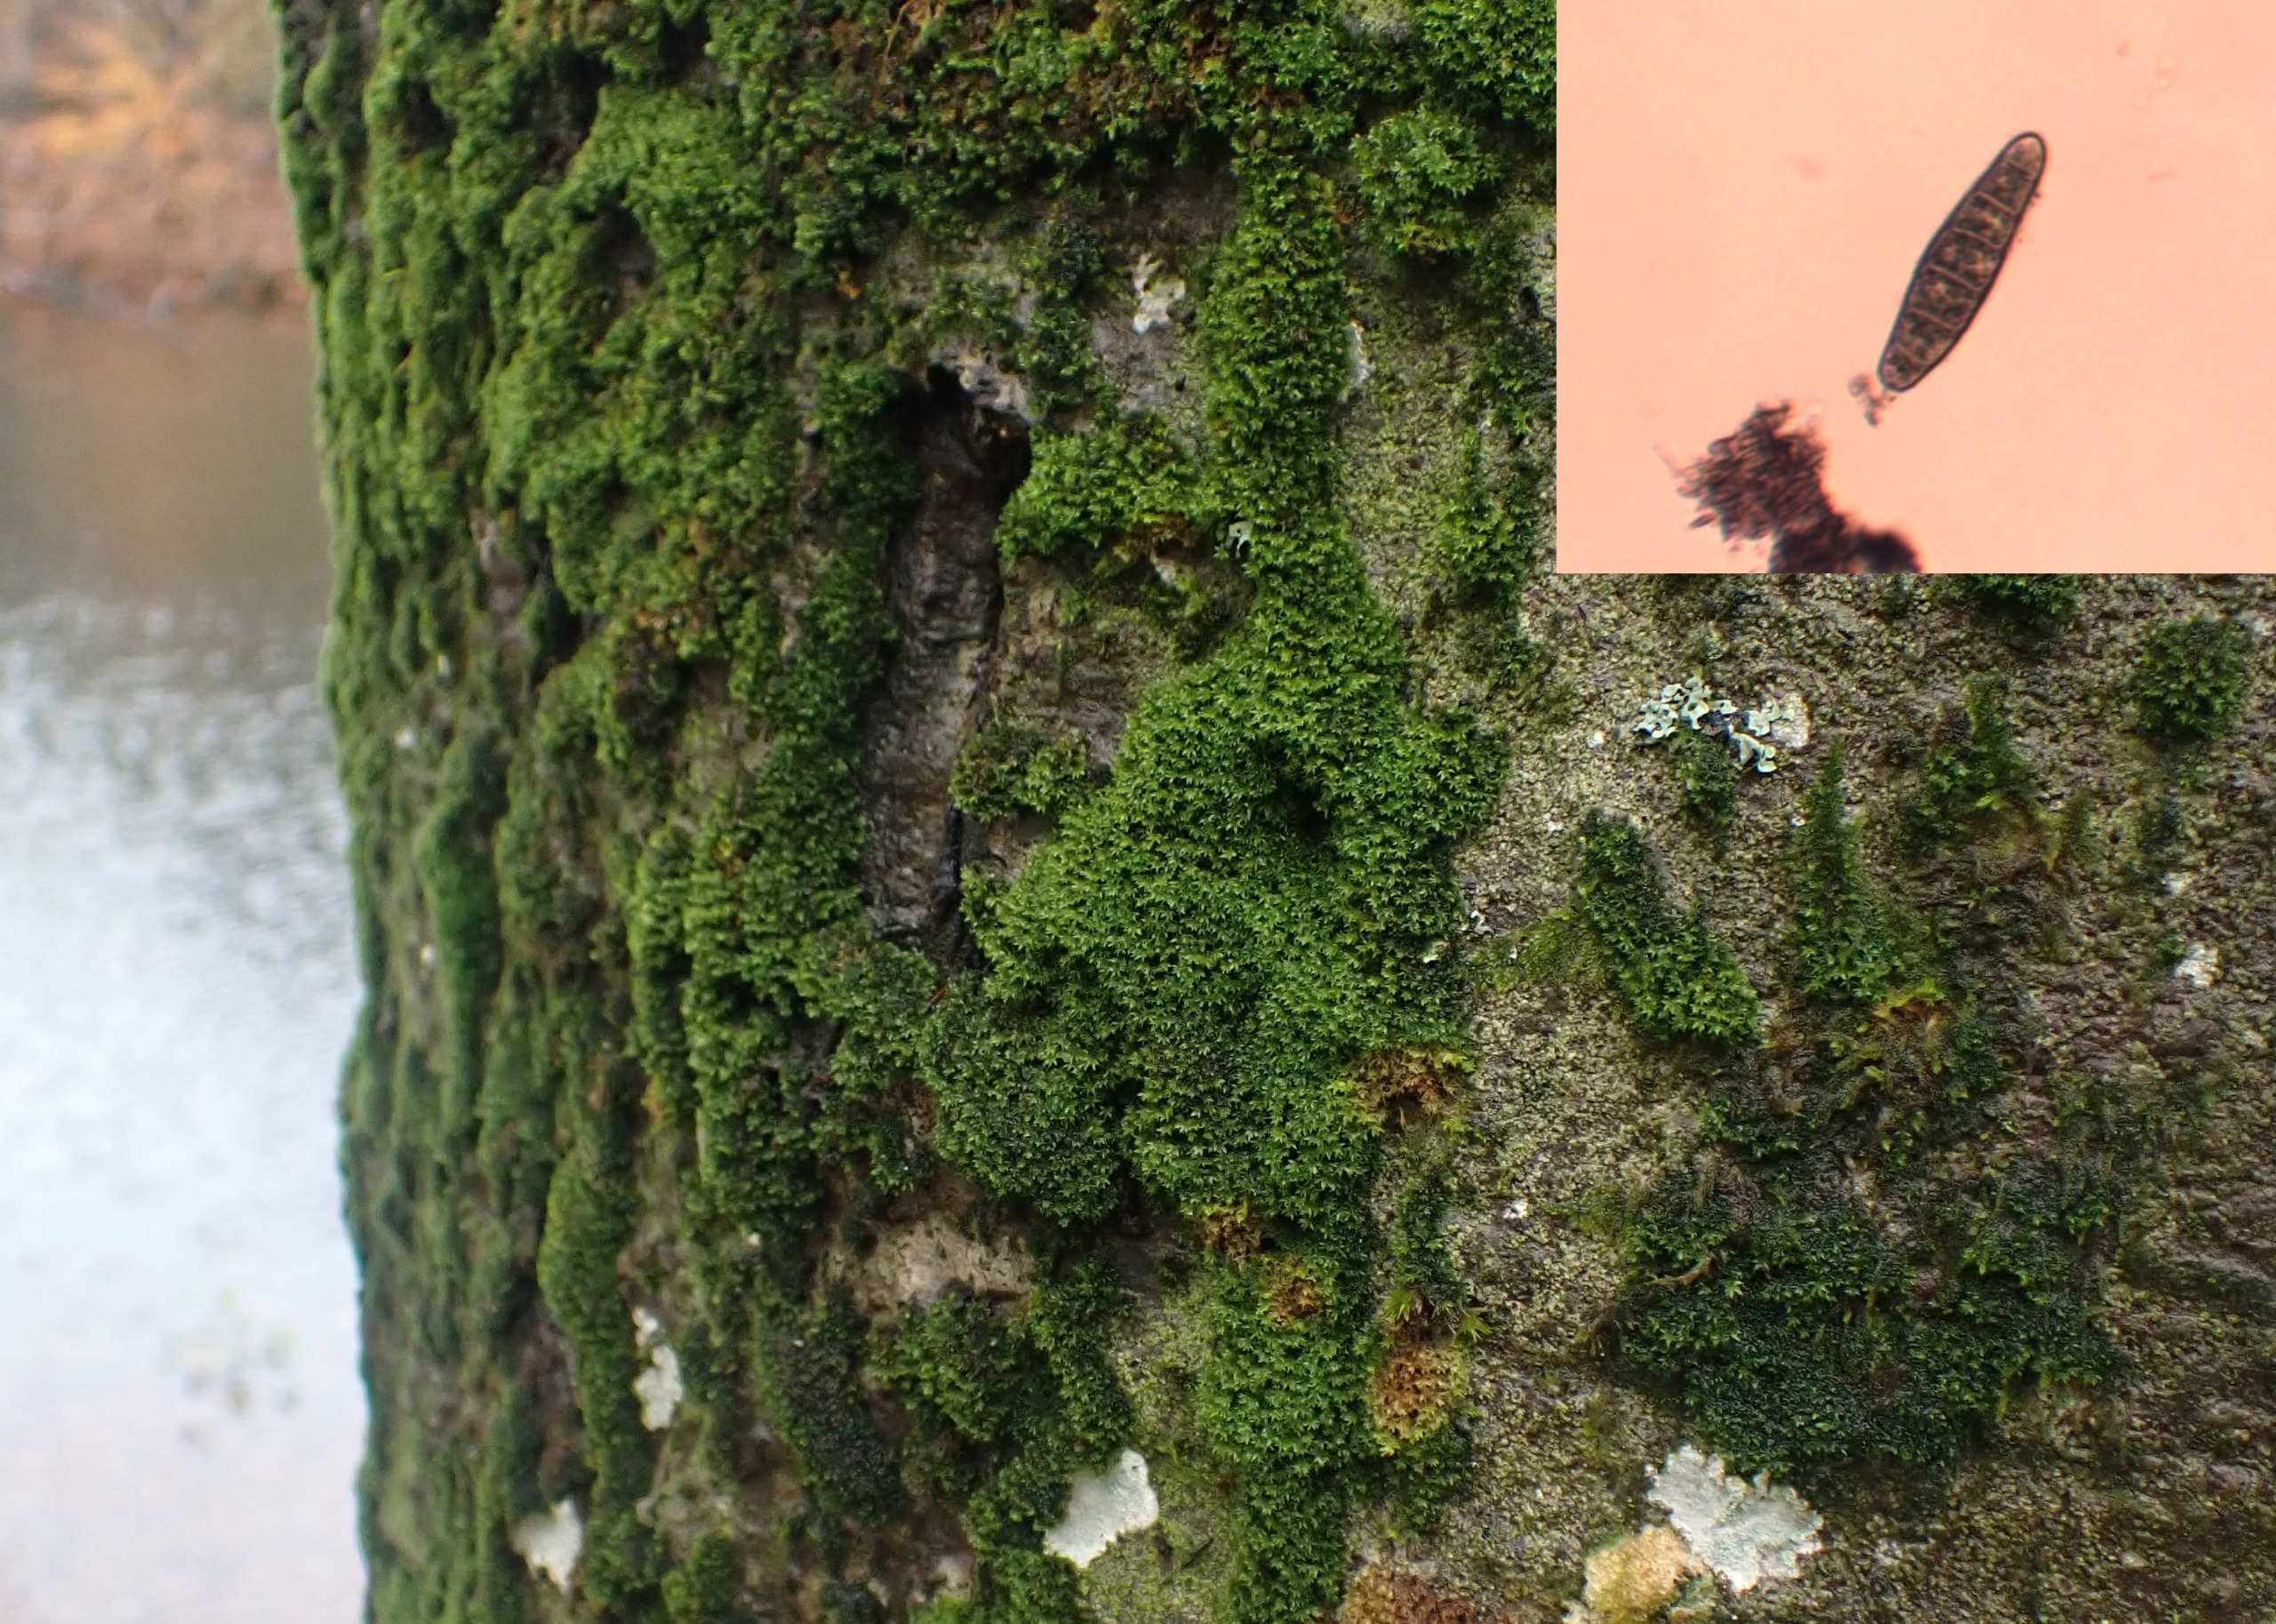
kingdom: Plantae
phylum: Bryophyta
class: Bryopsida
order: Orthotrichales
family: Orthotrichaceae
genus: Zygodon
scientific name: Zygodon conoideus
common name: Tand-køllemos
